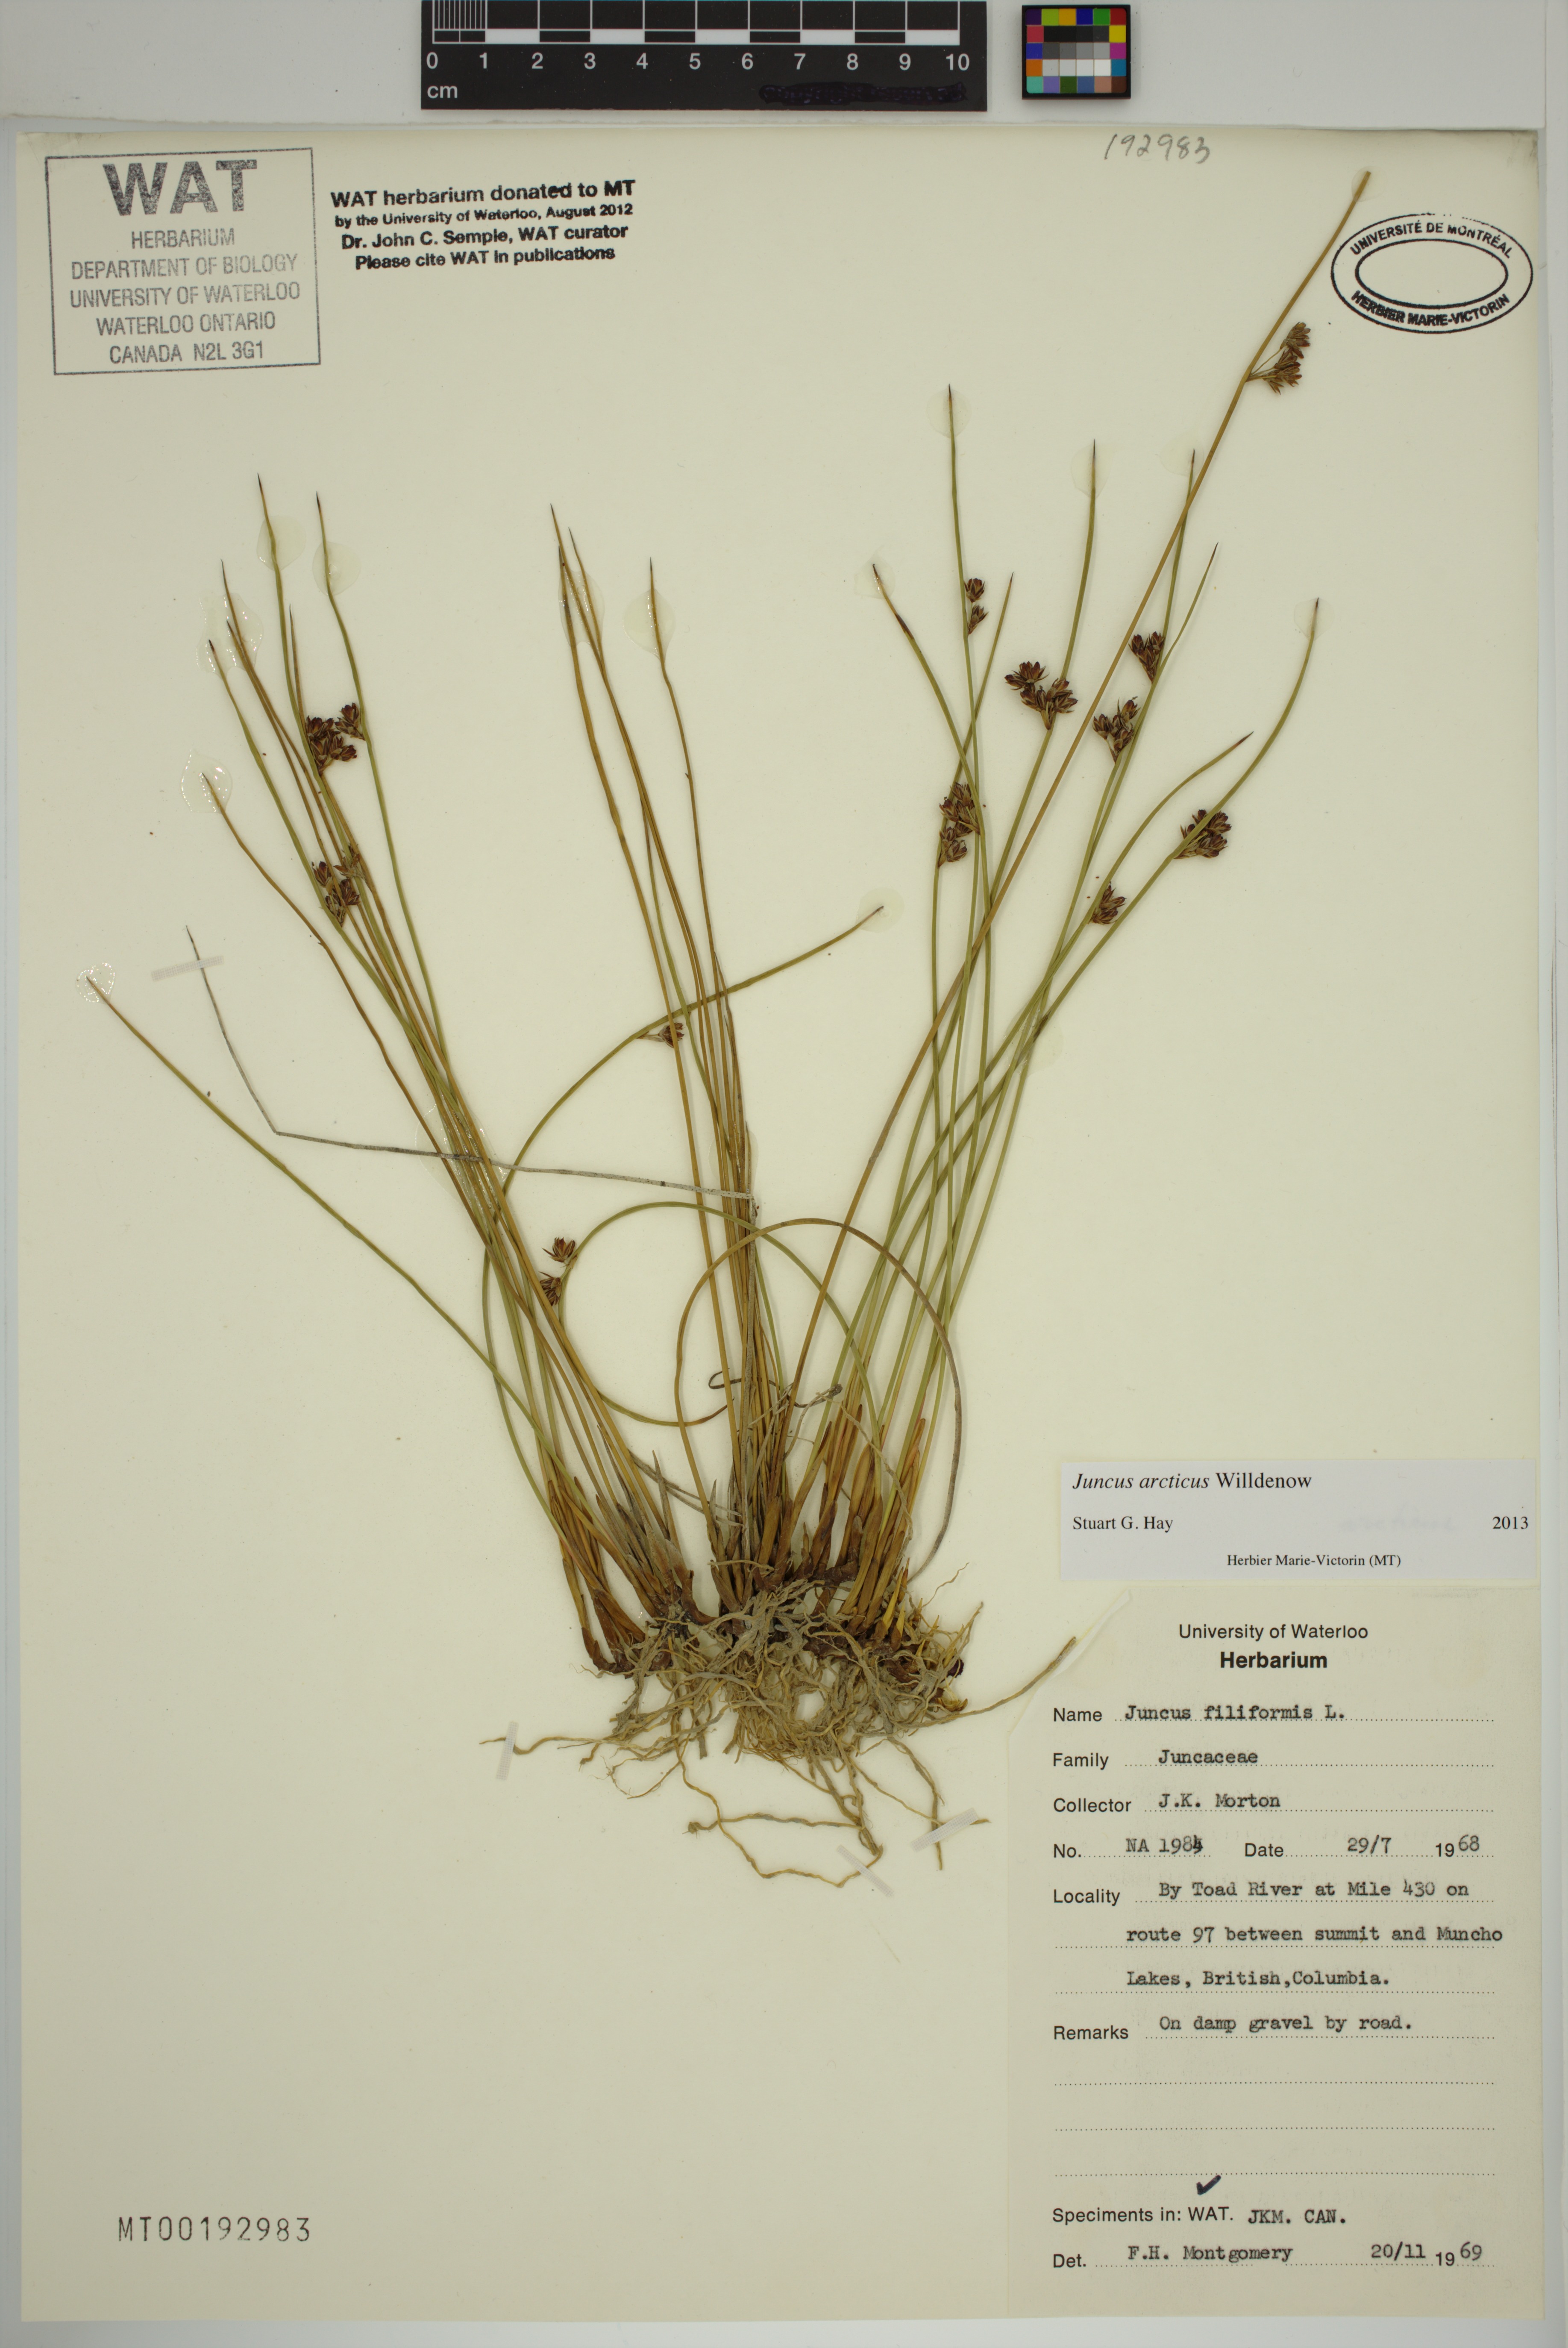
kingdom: Plantae
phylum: Tracheophyta
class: Liliopsida
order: Poales
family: Juncaceae
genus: Juncus
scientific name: Juncus arcticus
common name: Arctic rush
